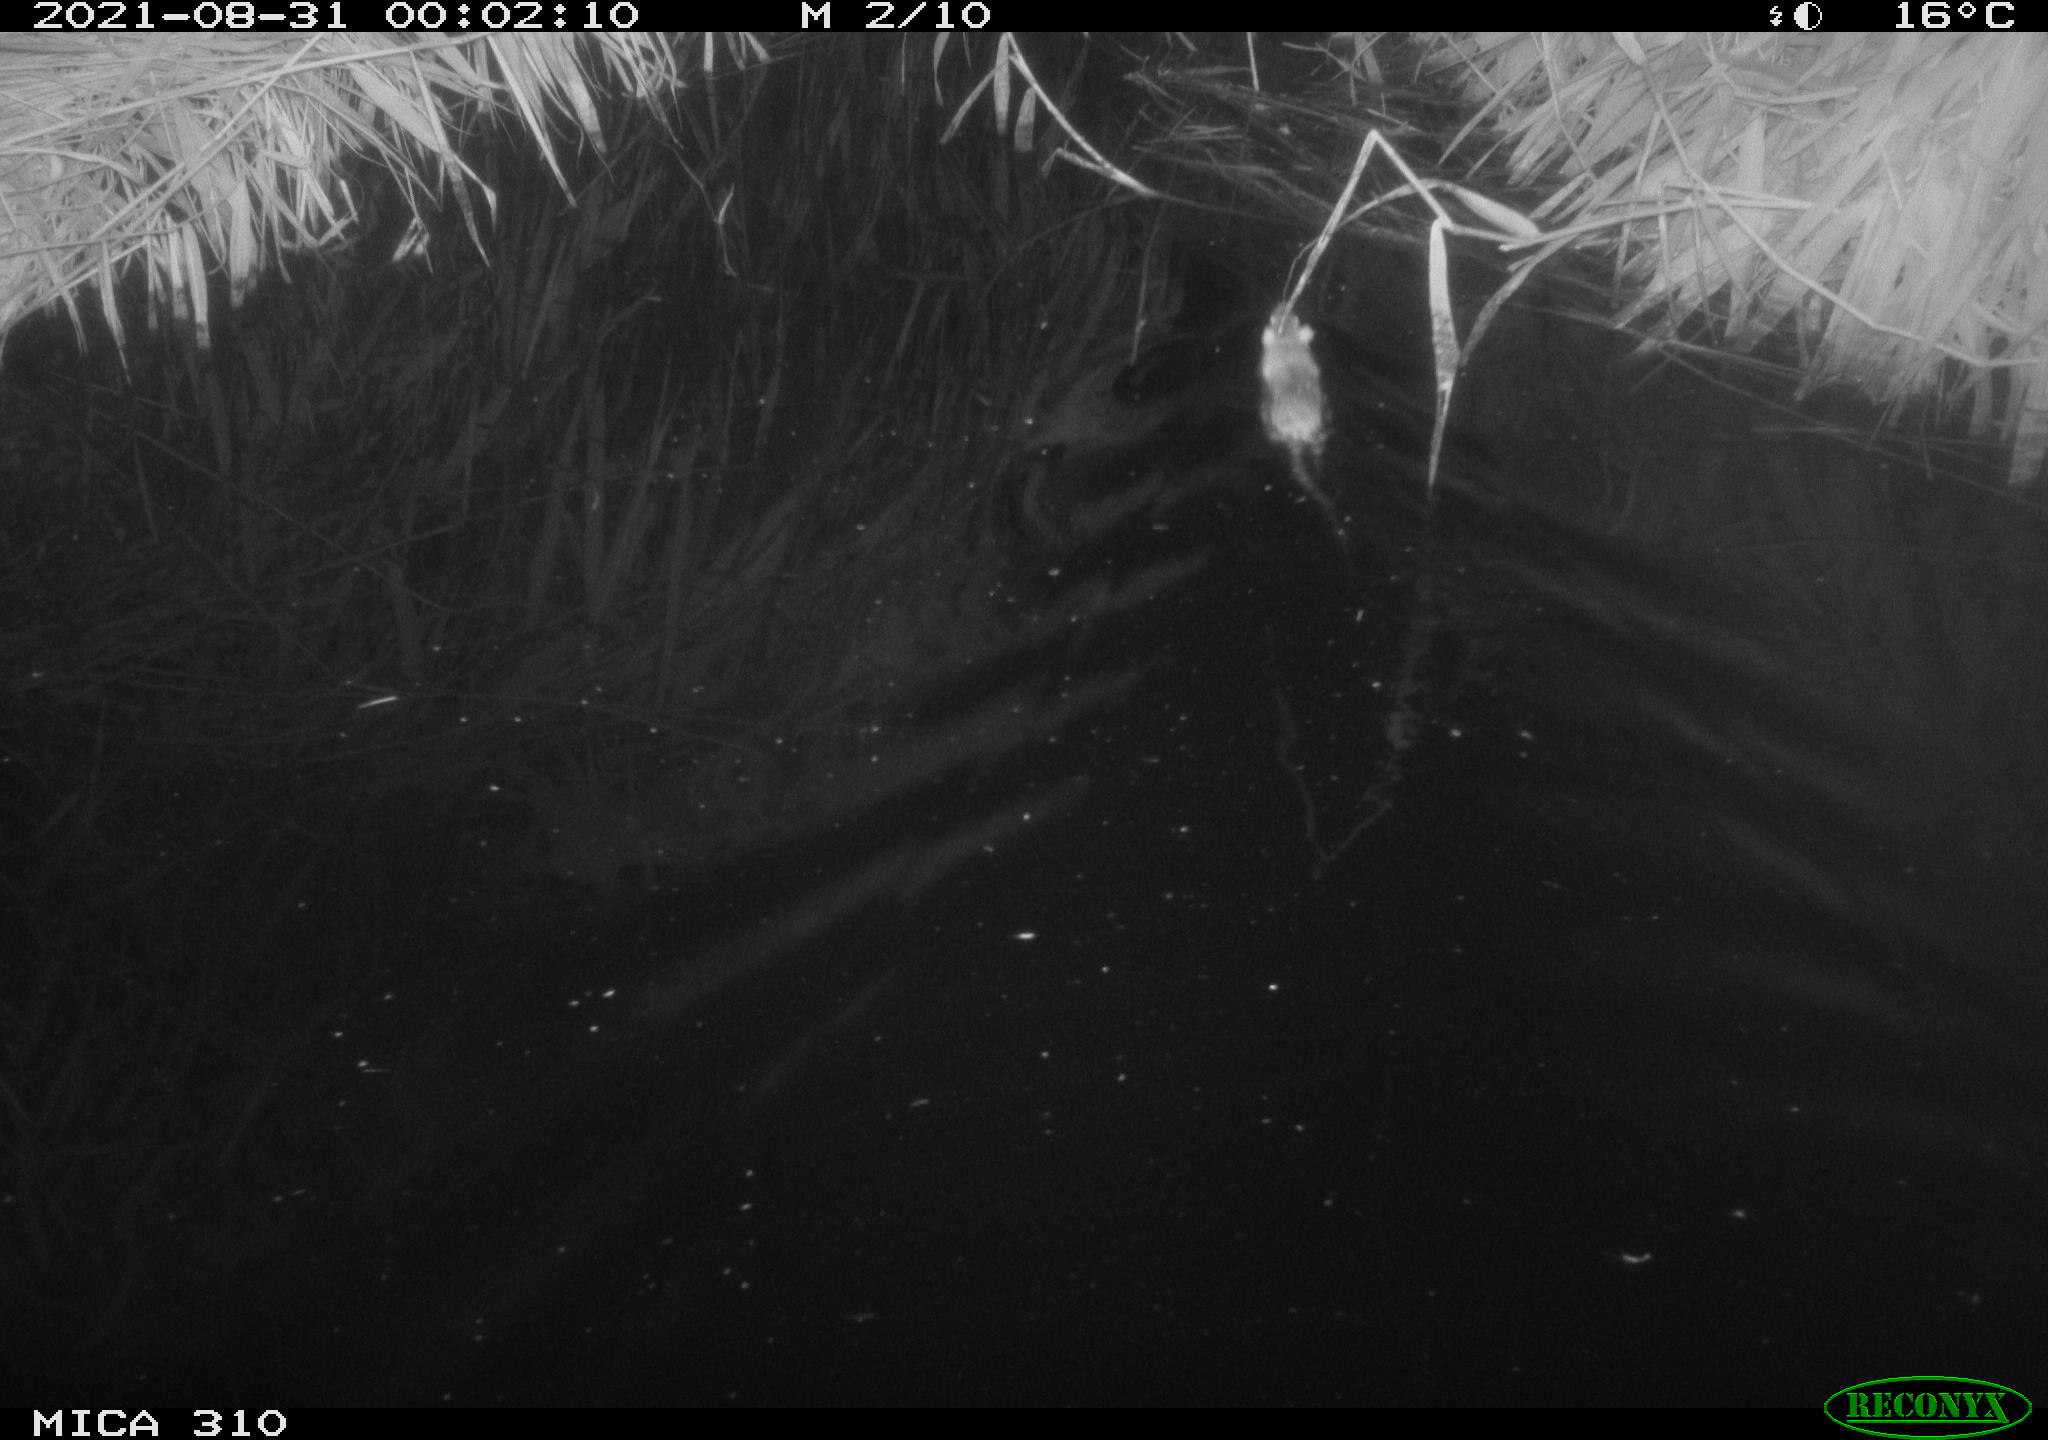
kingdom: Animalia
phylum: Chordata
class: Mammalia
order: Rodentia
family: Muridae
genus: Rattus
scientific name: Rattus norvegicus
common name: Brown rat
